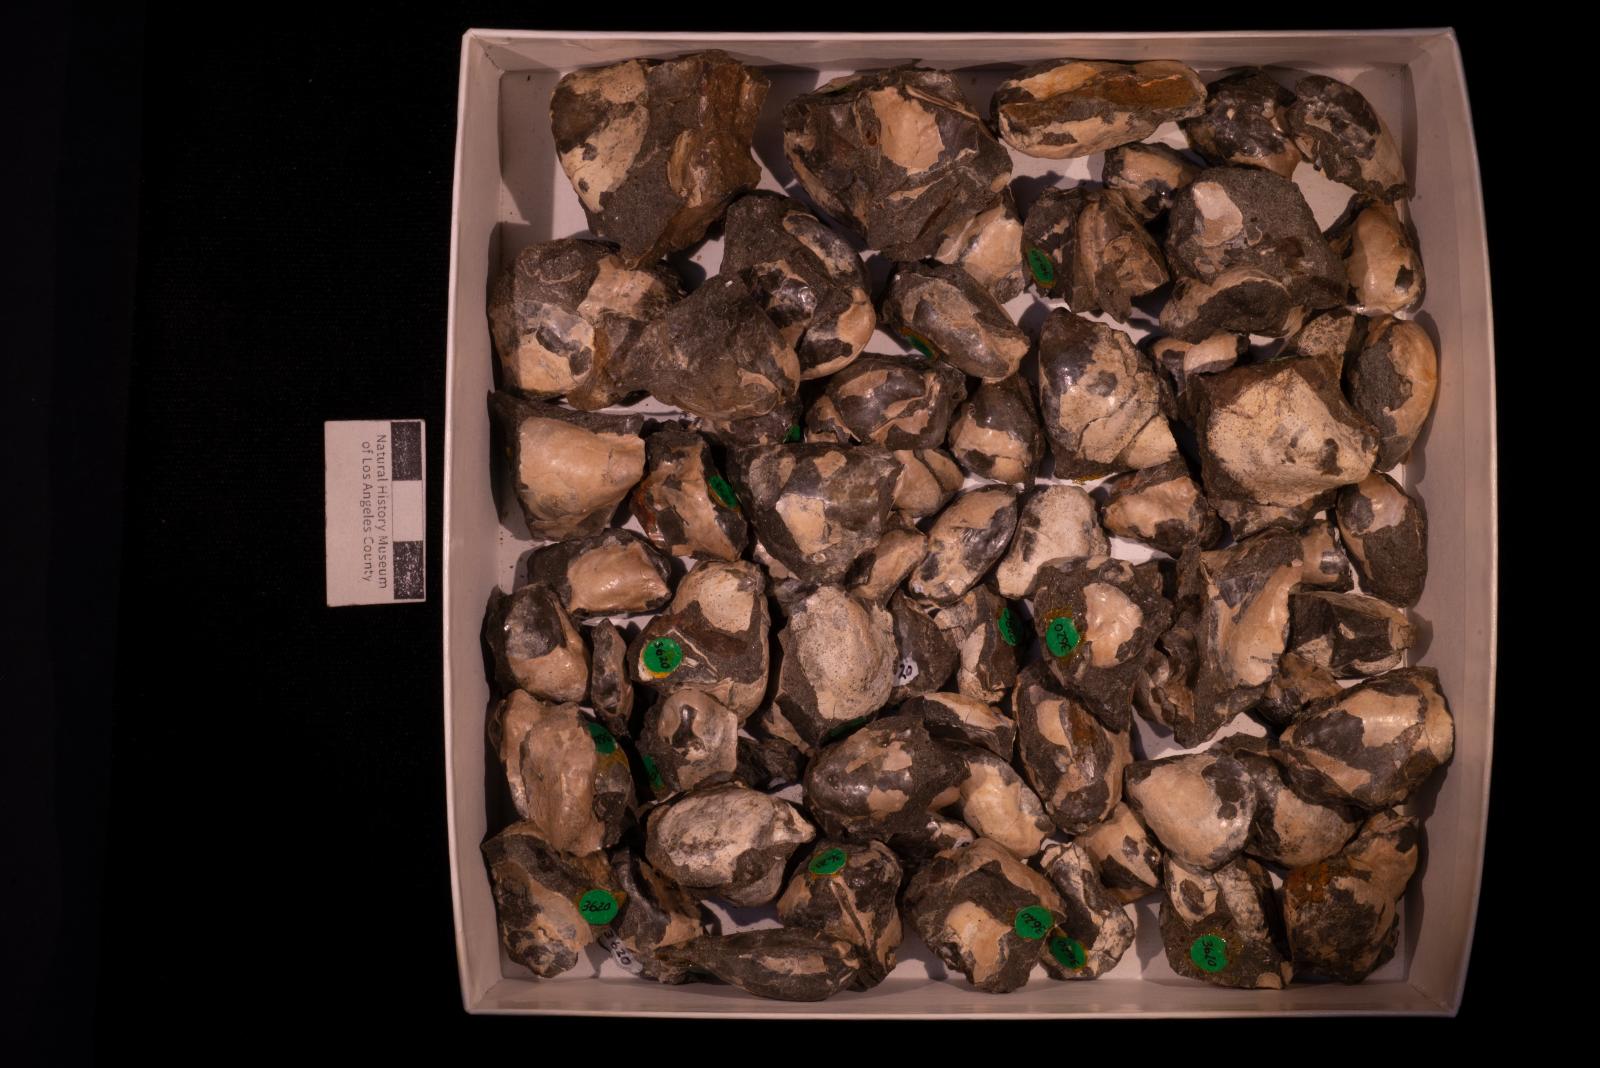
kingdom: Animalia
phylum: Mollusca
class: Bivalvia
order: Ostreida
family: Pteriidae
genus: Pteria
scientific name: Pteria pellucida
